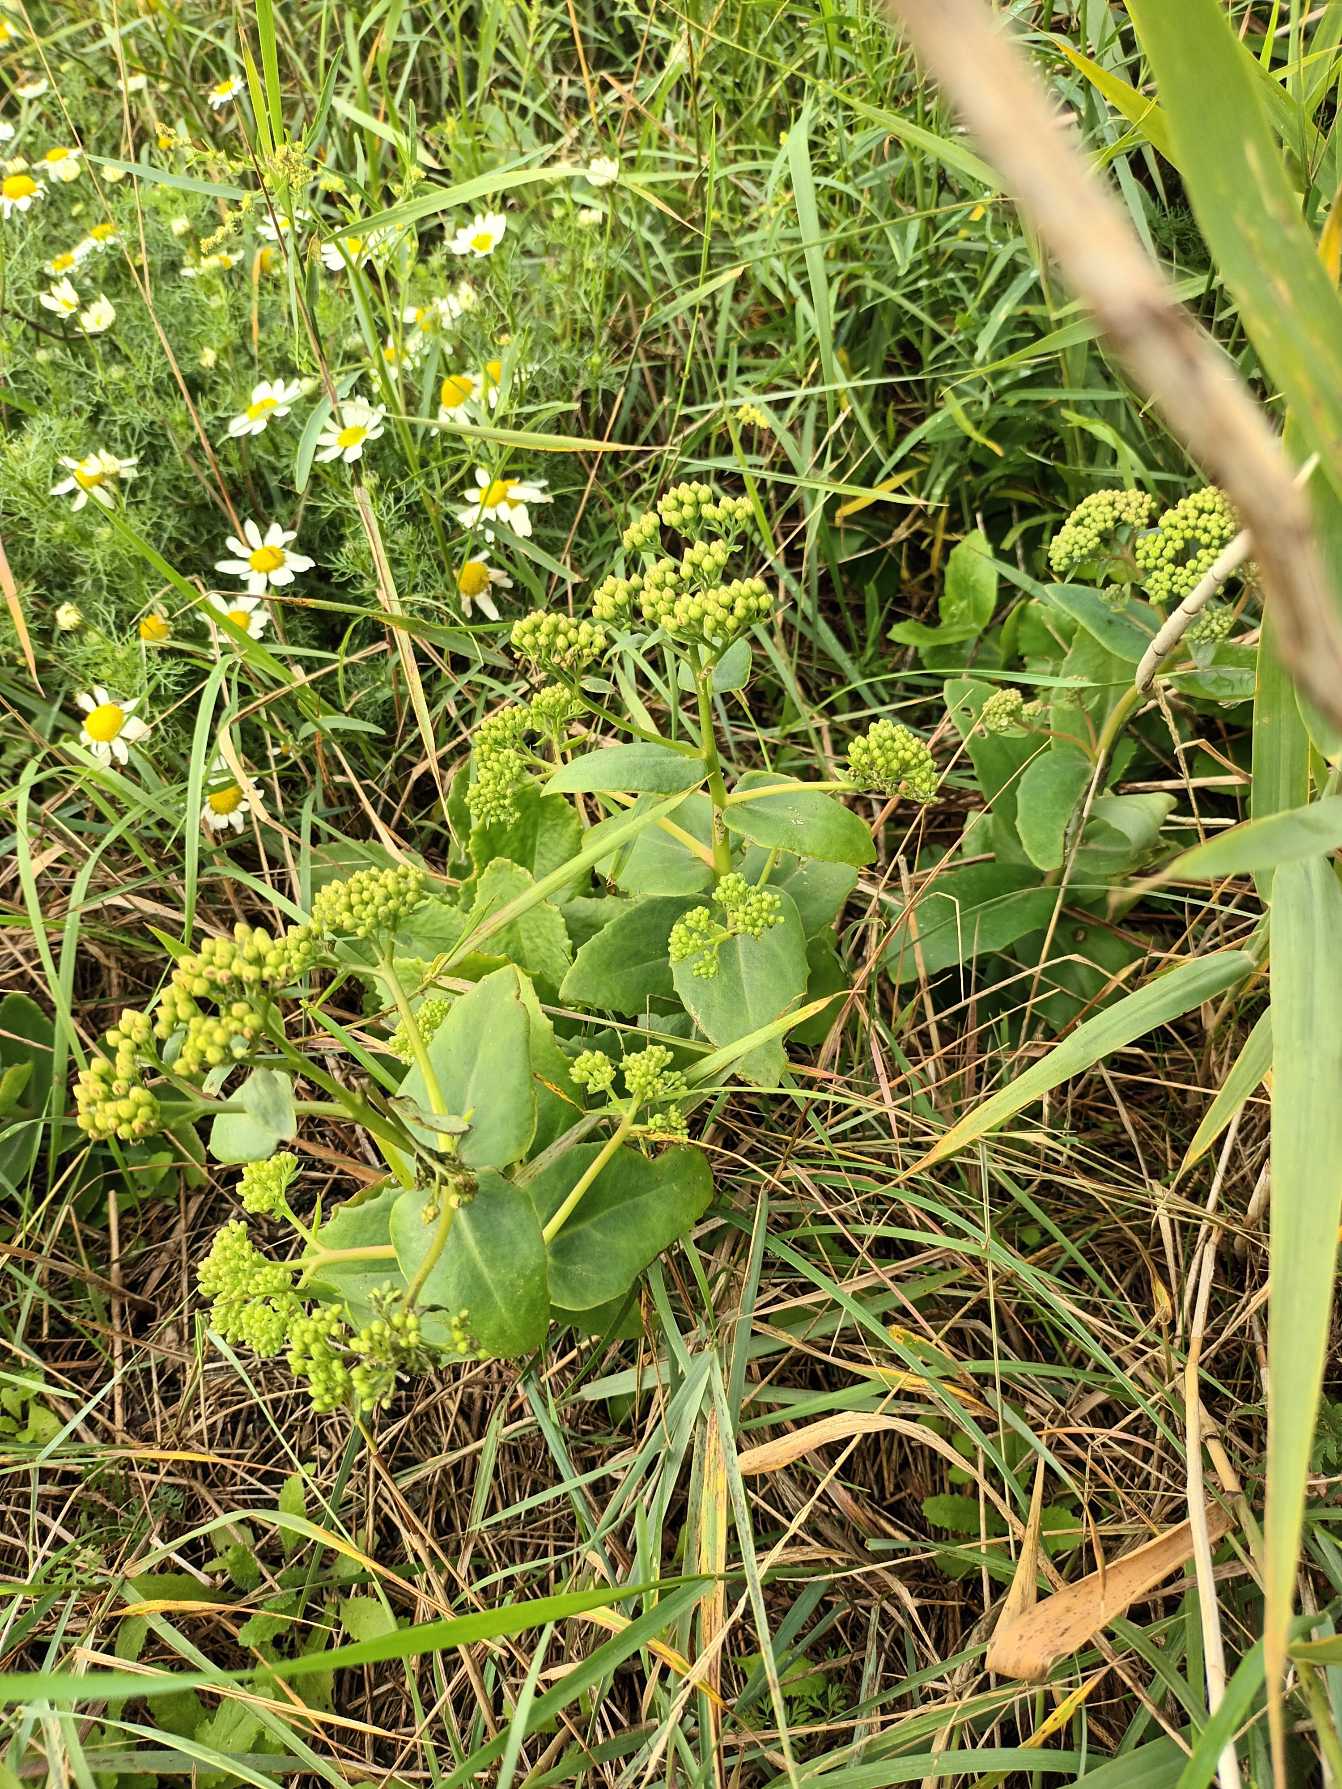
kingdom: Plantae
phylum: Tracheophyta
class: Magnoliopsida
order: Saxifragales
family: Crassulaceae
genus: Hylotelephium
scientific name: Hylotelephium maximum
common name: Almindelig sankthansurt
